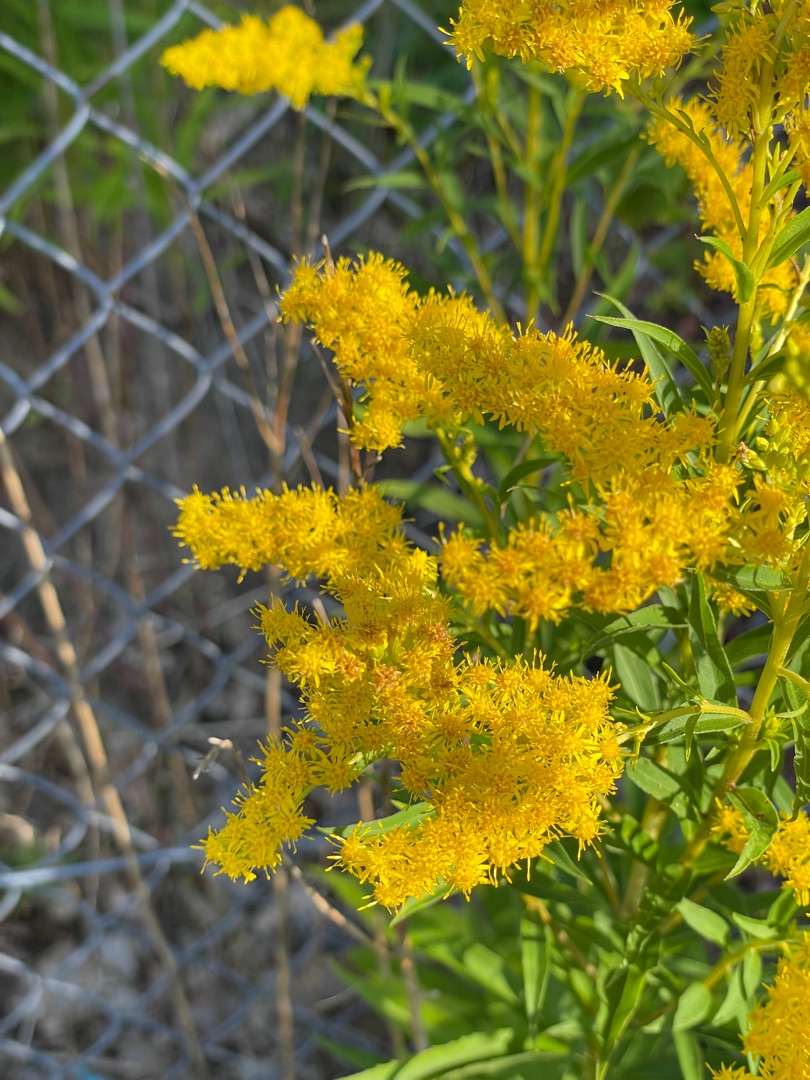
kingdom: Plantae
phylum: Tracheophyta
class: Magnoliopsida
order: Asterales
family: Asteraceae
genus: Solidago
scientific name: Solidago gigantea
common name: Sildig gyldenris
